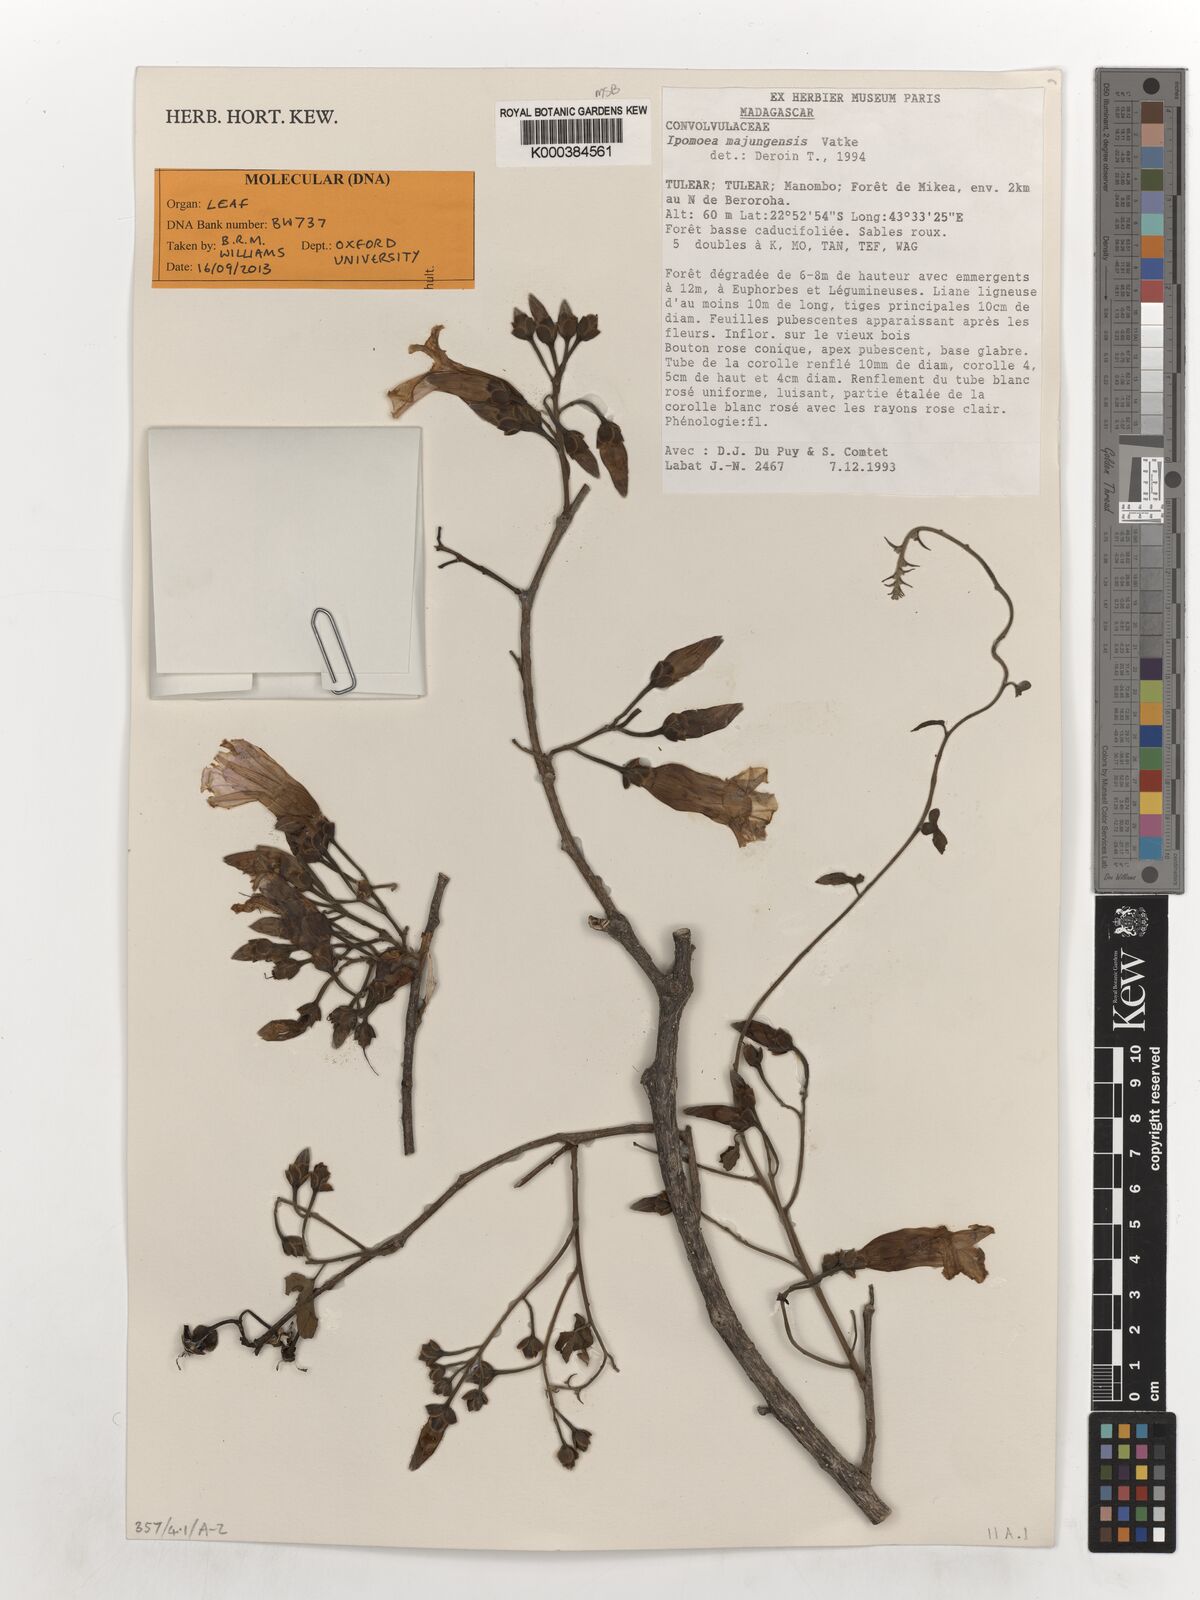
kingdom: Plantae
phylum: Tracheophyta
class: Magnoliopsida
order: Solanales
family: Convolvulaceae
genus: Stictocardia
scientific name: Stictocardia mojangensis
